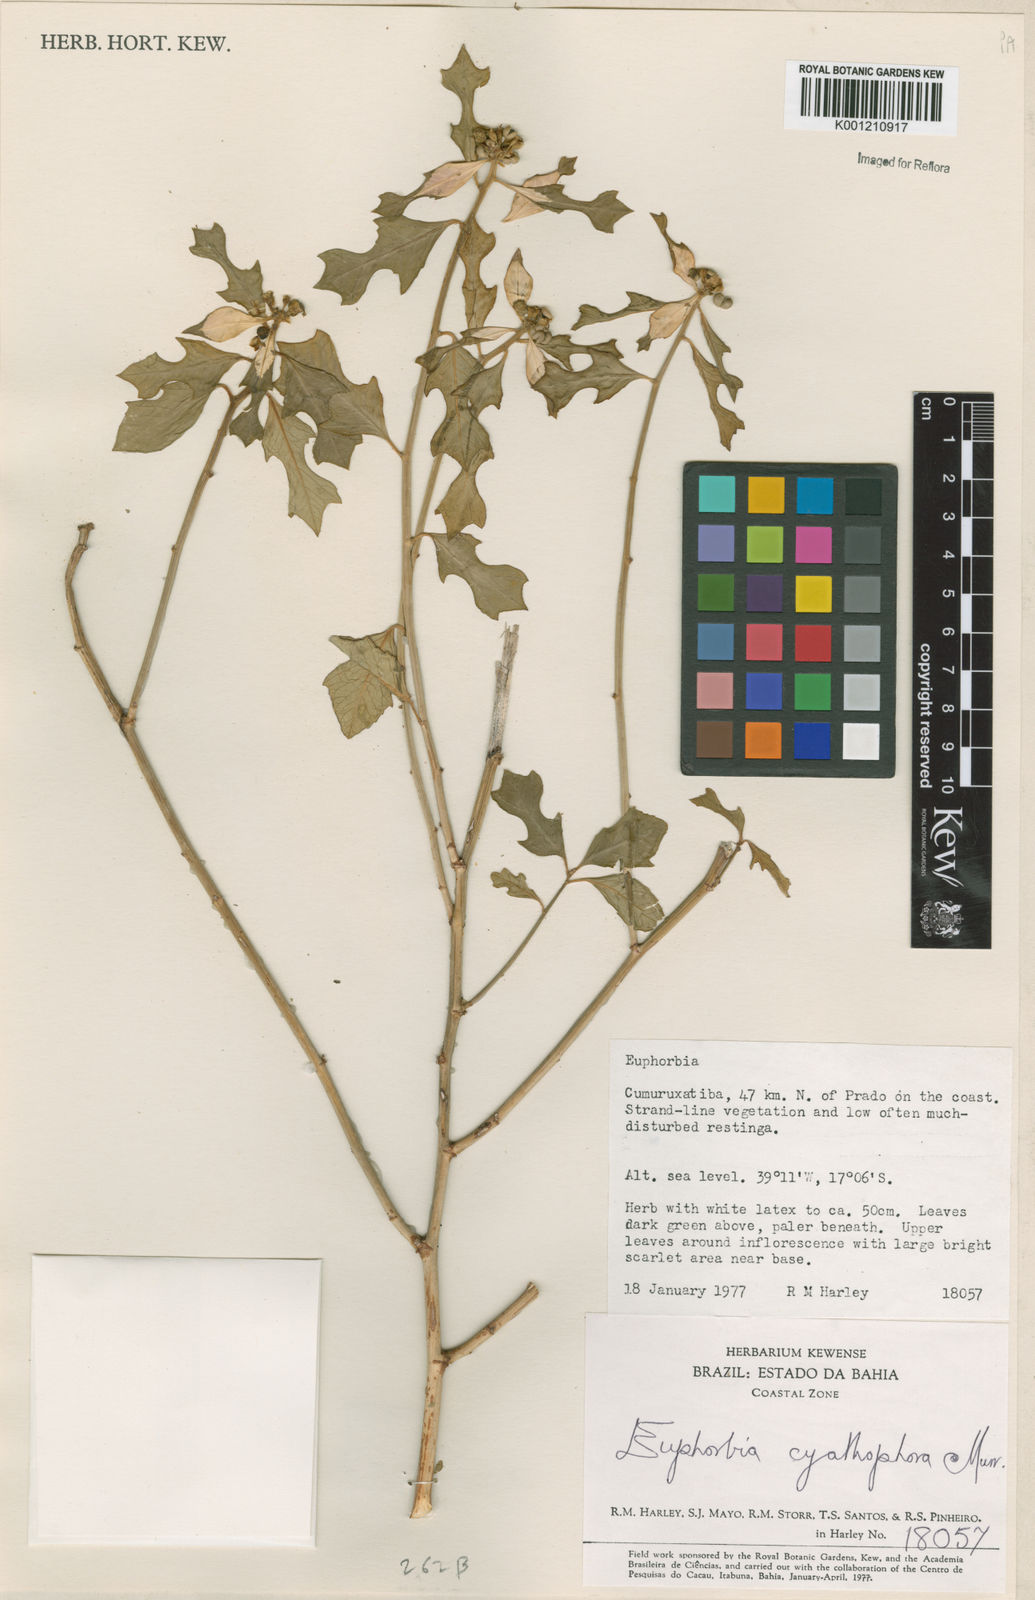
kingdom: Plantae
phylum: Tracheophyta
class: Magnoliopsida
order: Malpighiales
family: Euphorbiaceae
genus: Euphorbia
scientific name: Euphorbia heterophylla
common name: Mexican fireplant
